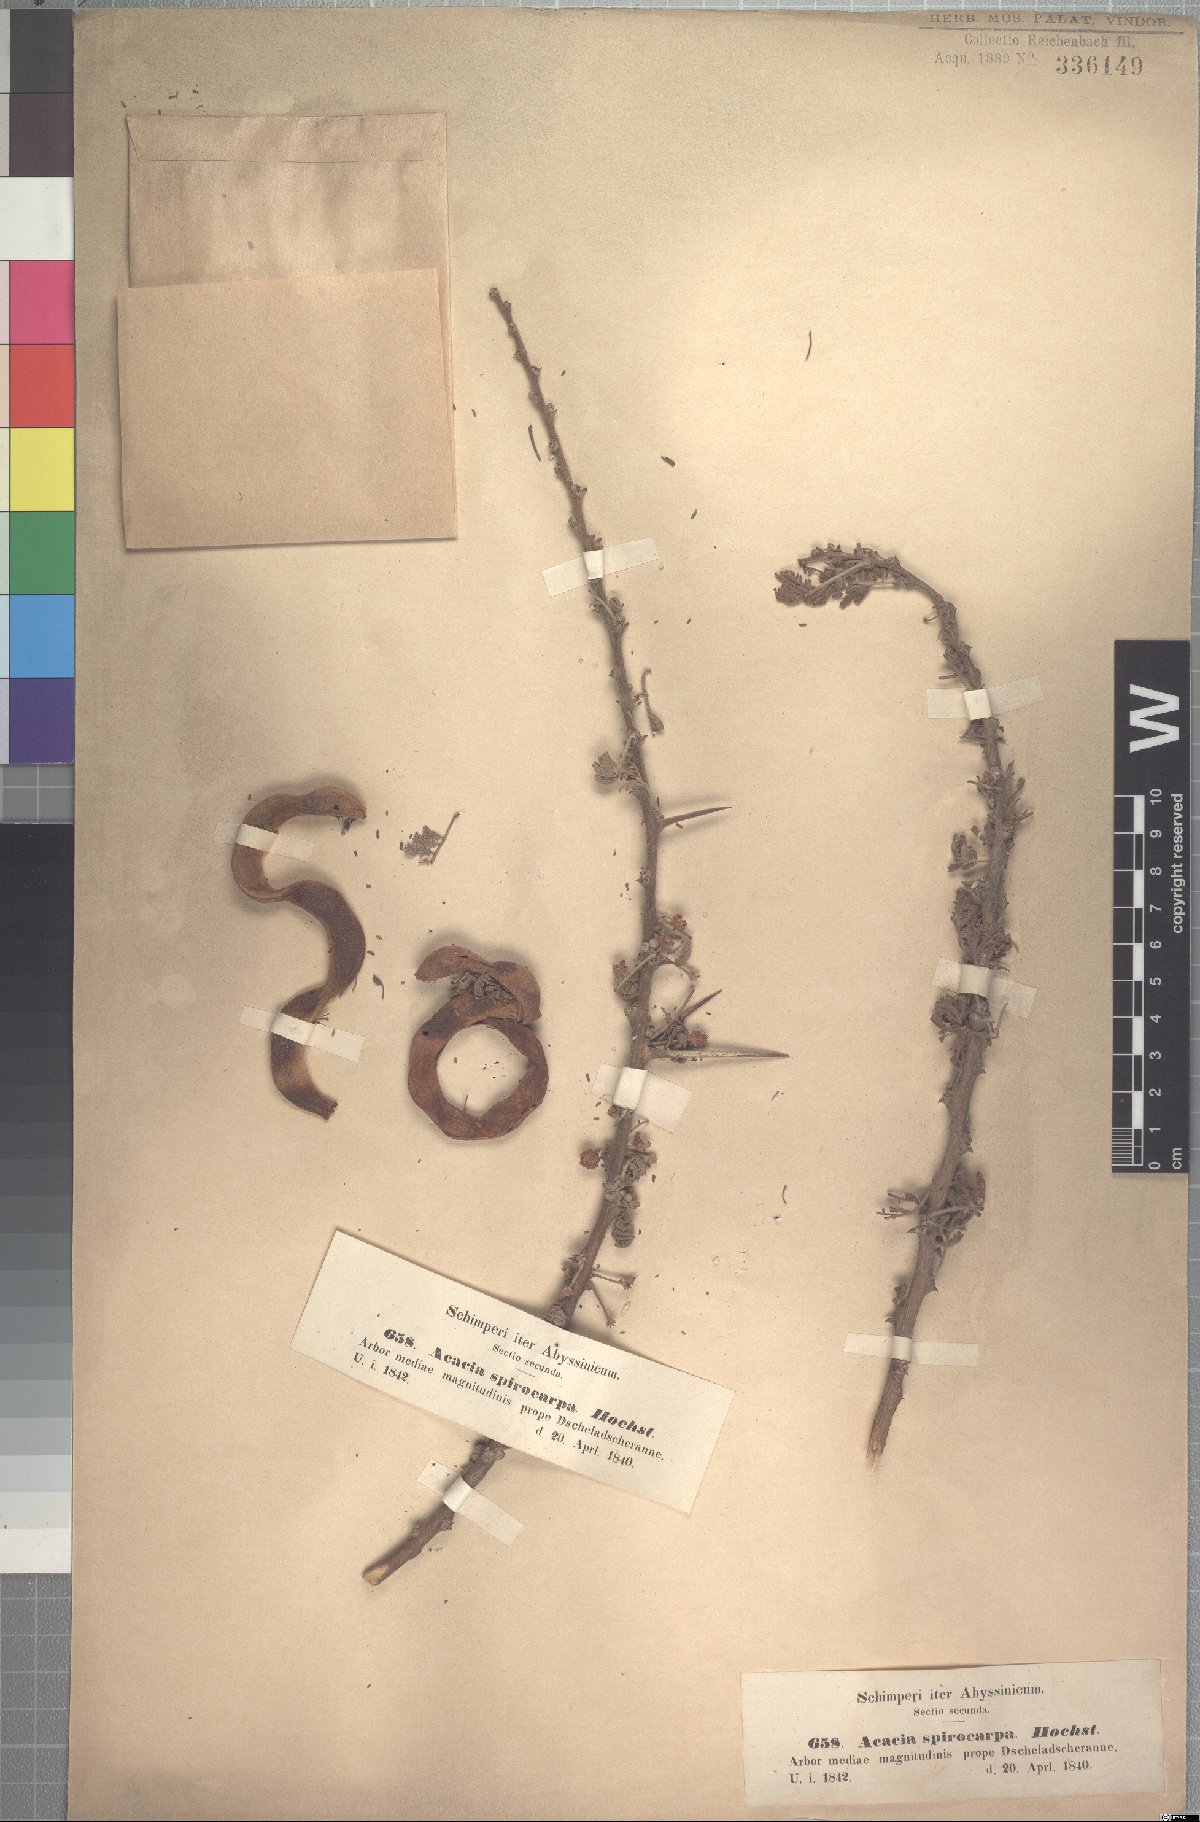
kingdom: Plantae
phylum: Tracheophyta
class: Magnoliopsida
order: Fabales
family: Fabaceae
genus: Vachellia
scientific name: Vachellia tortilis
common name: Umbrella thorn acacia
